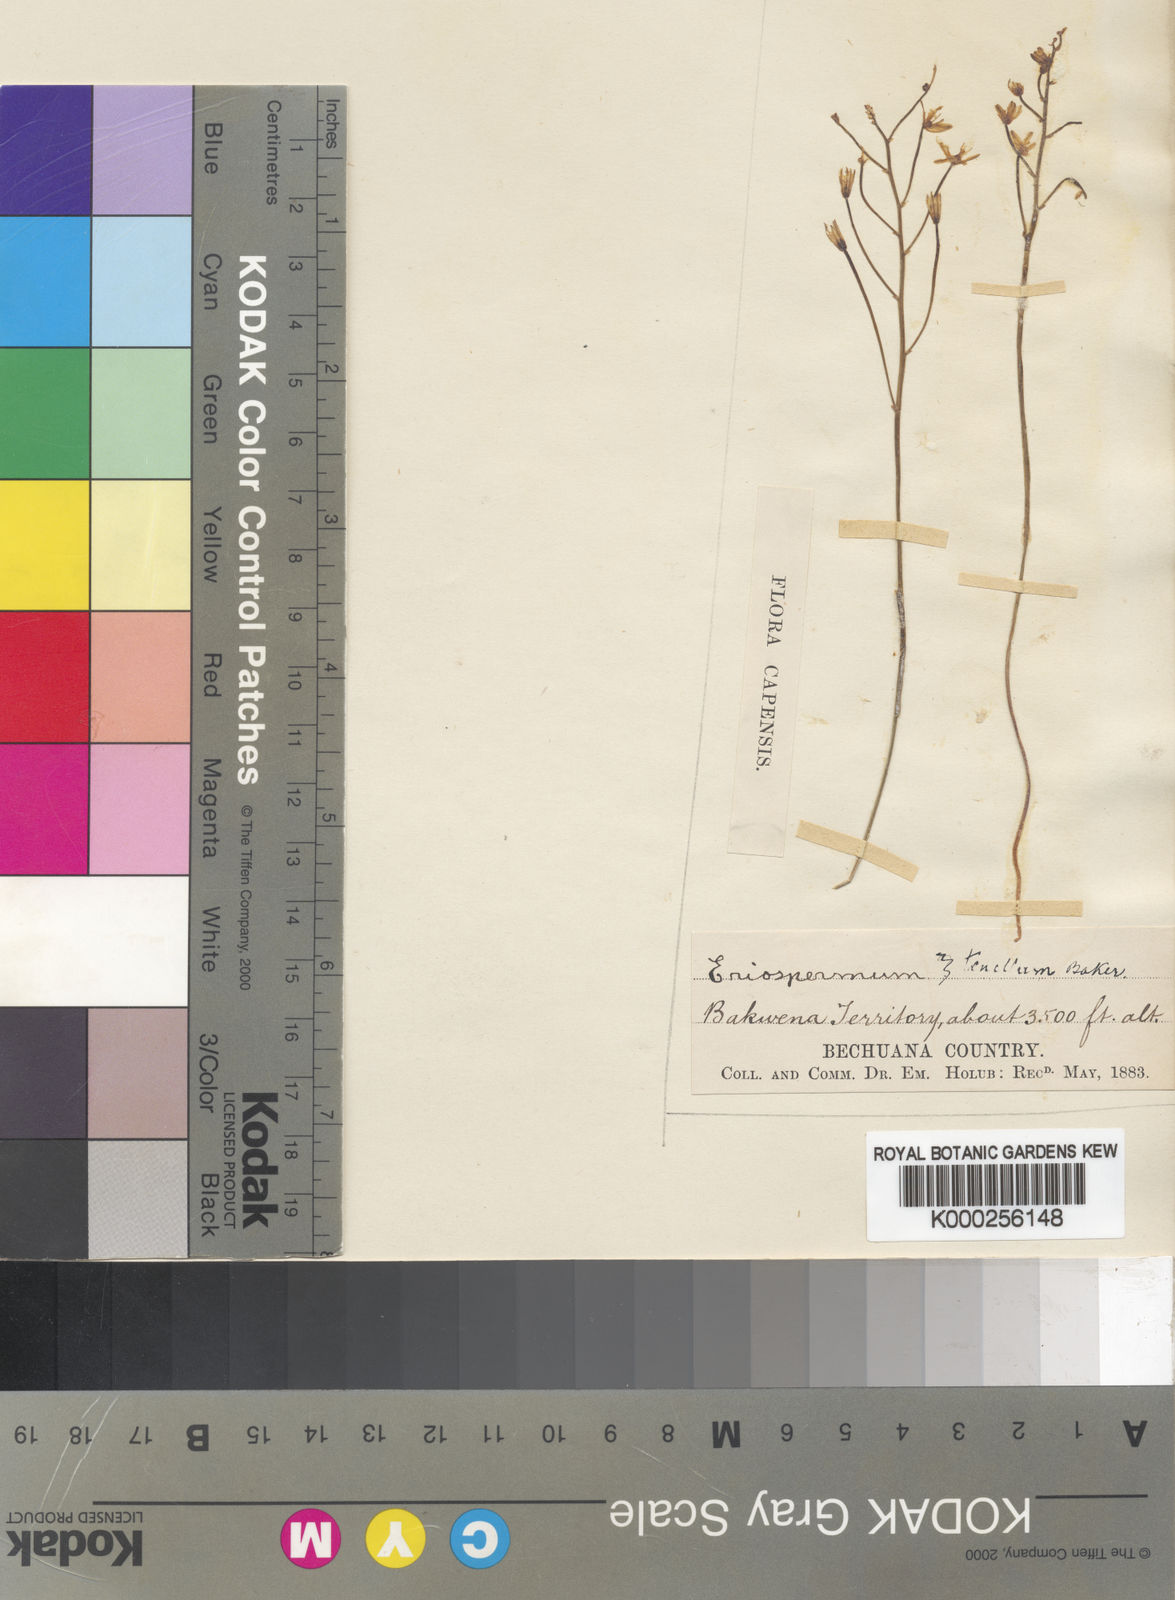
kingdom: Plantae
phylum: Tracheophyta
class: Liliopsida
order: Asparagales
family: Asparagaceae
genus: Eriospermum
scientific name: Eriospermum porphyrovalve
